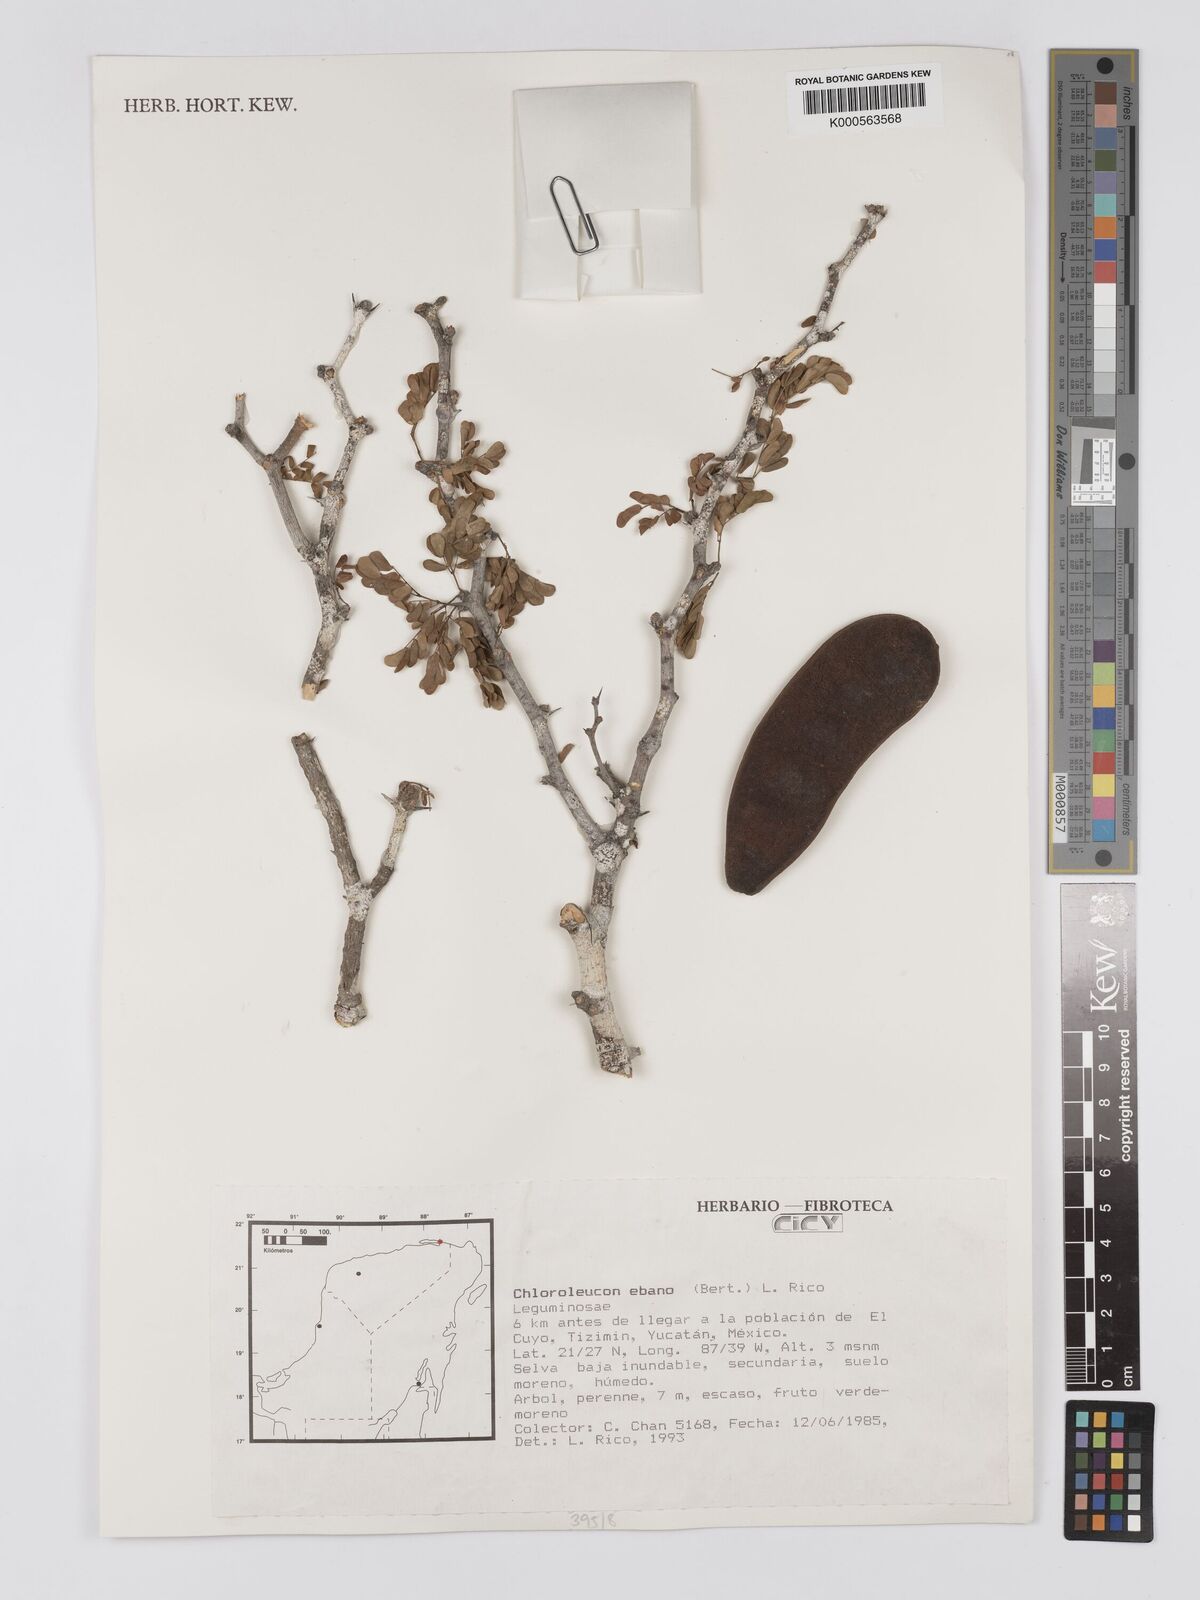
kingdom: Plantae
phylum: Tracheophyta
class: Magnoliopsida
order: Fabales
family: Fabaceae
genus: Ebenopsis
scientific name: Ebenopsis ebano
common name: Ebony blackbead
